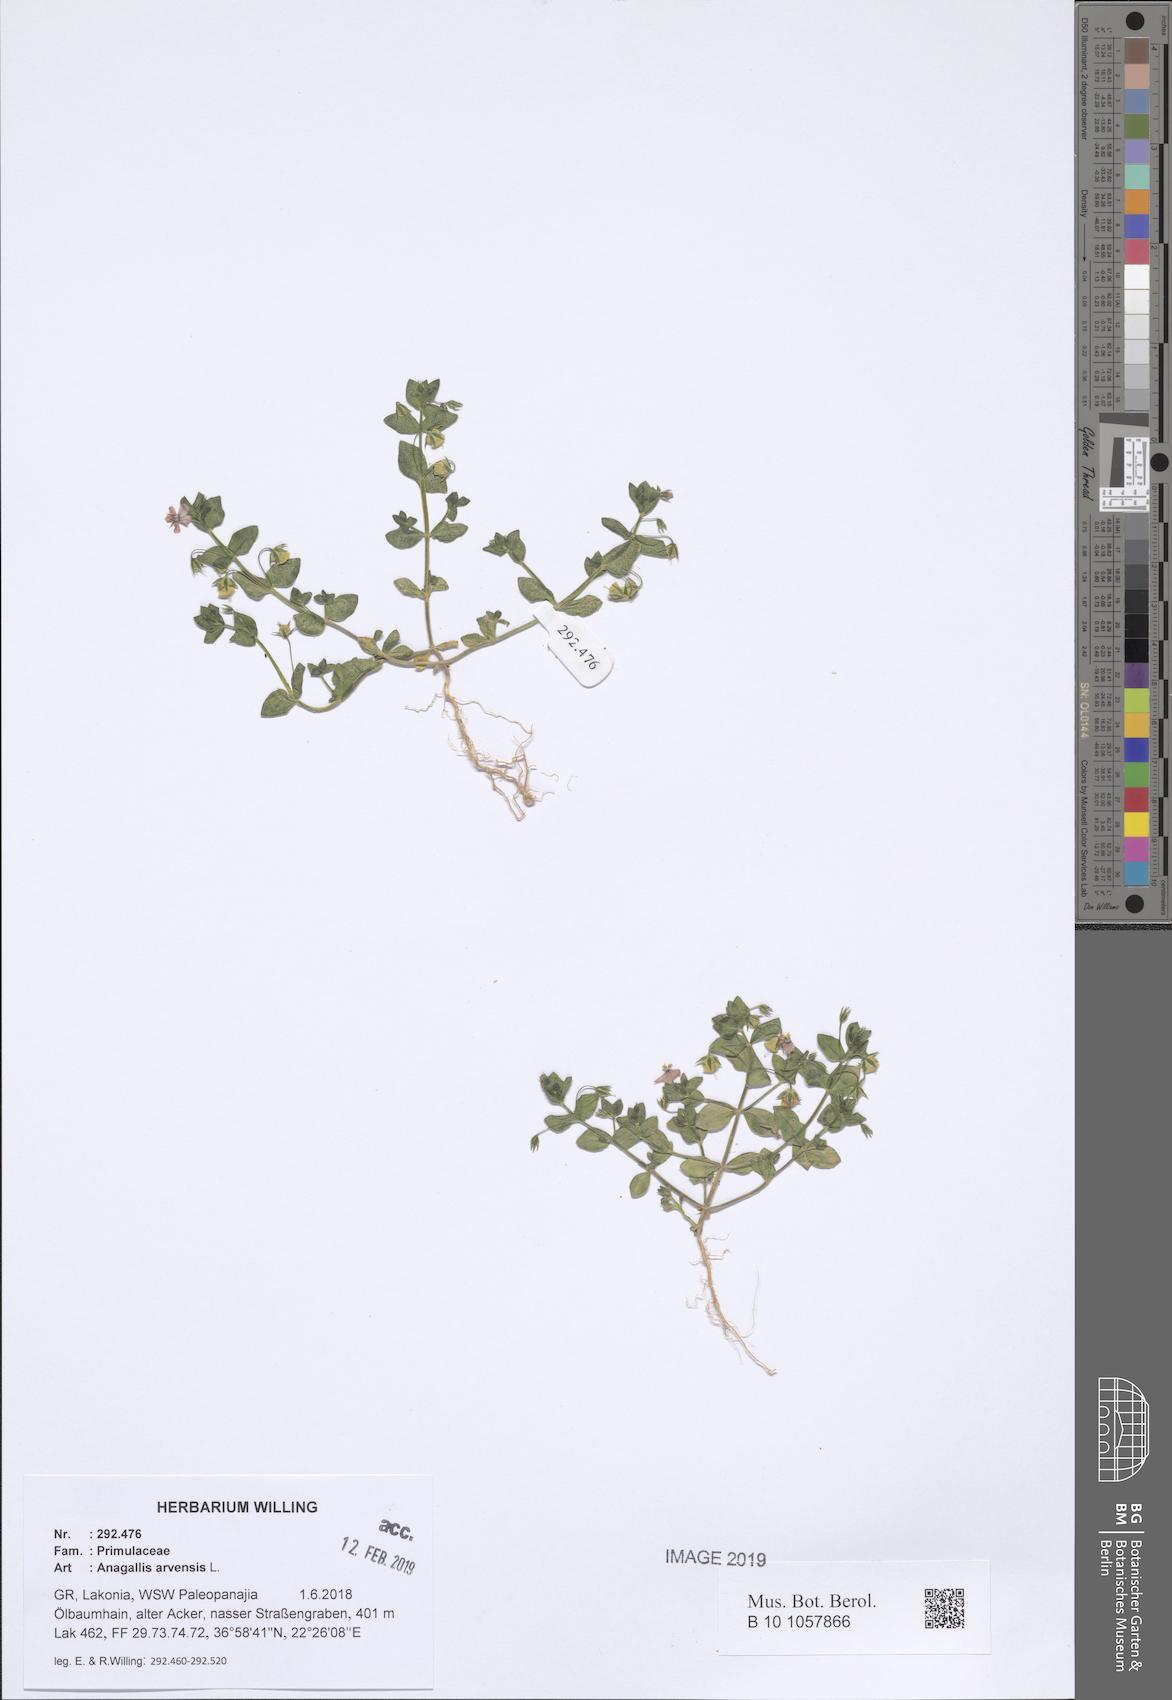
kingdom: Plantae
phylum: Tracheophyta
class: Magnoliopsida
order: Ericales
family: Primulaceae
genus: Lysimachia
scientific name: Lysimachia arvensis
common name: Scarlet pimpernel
